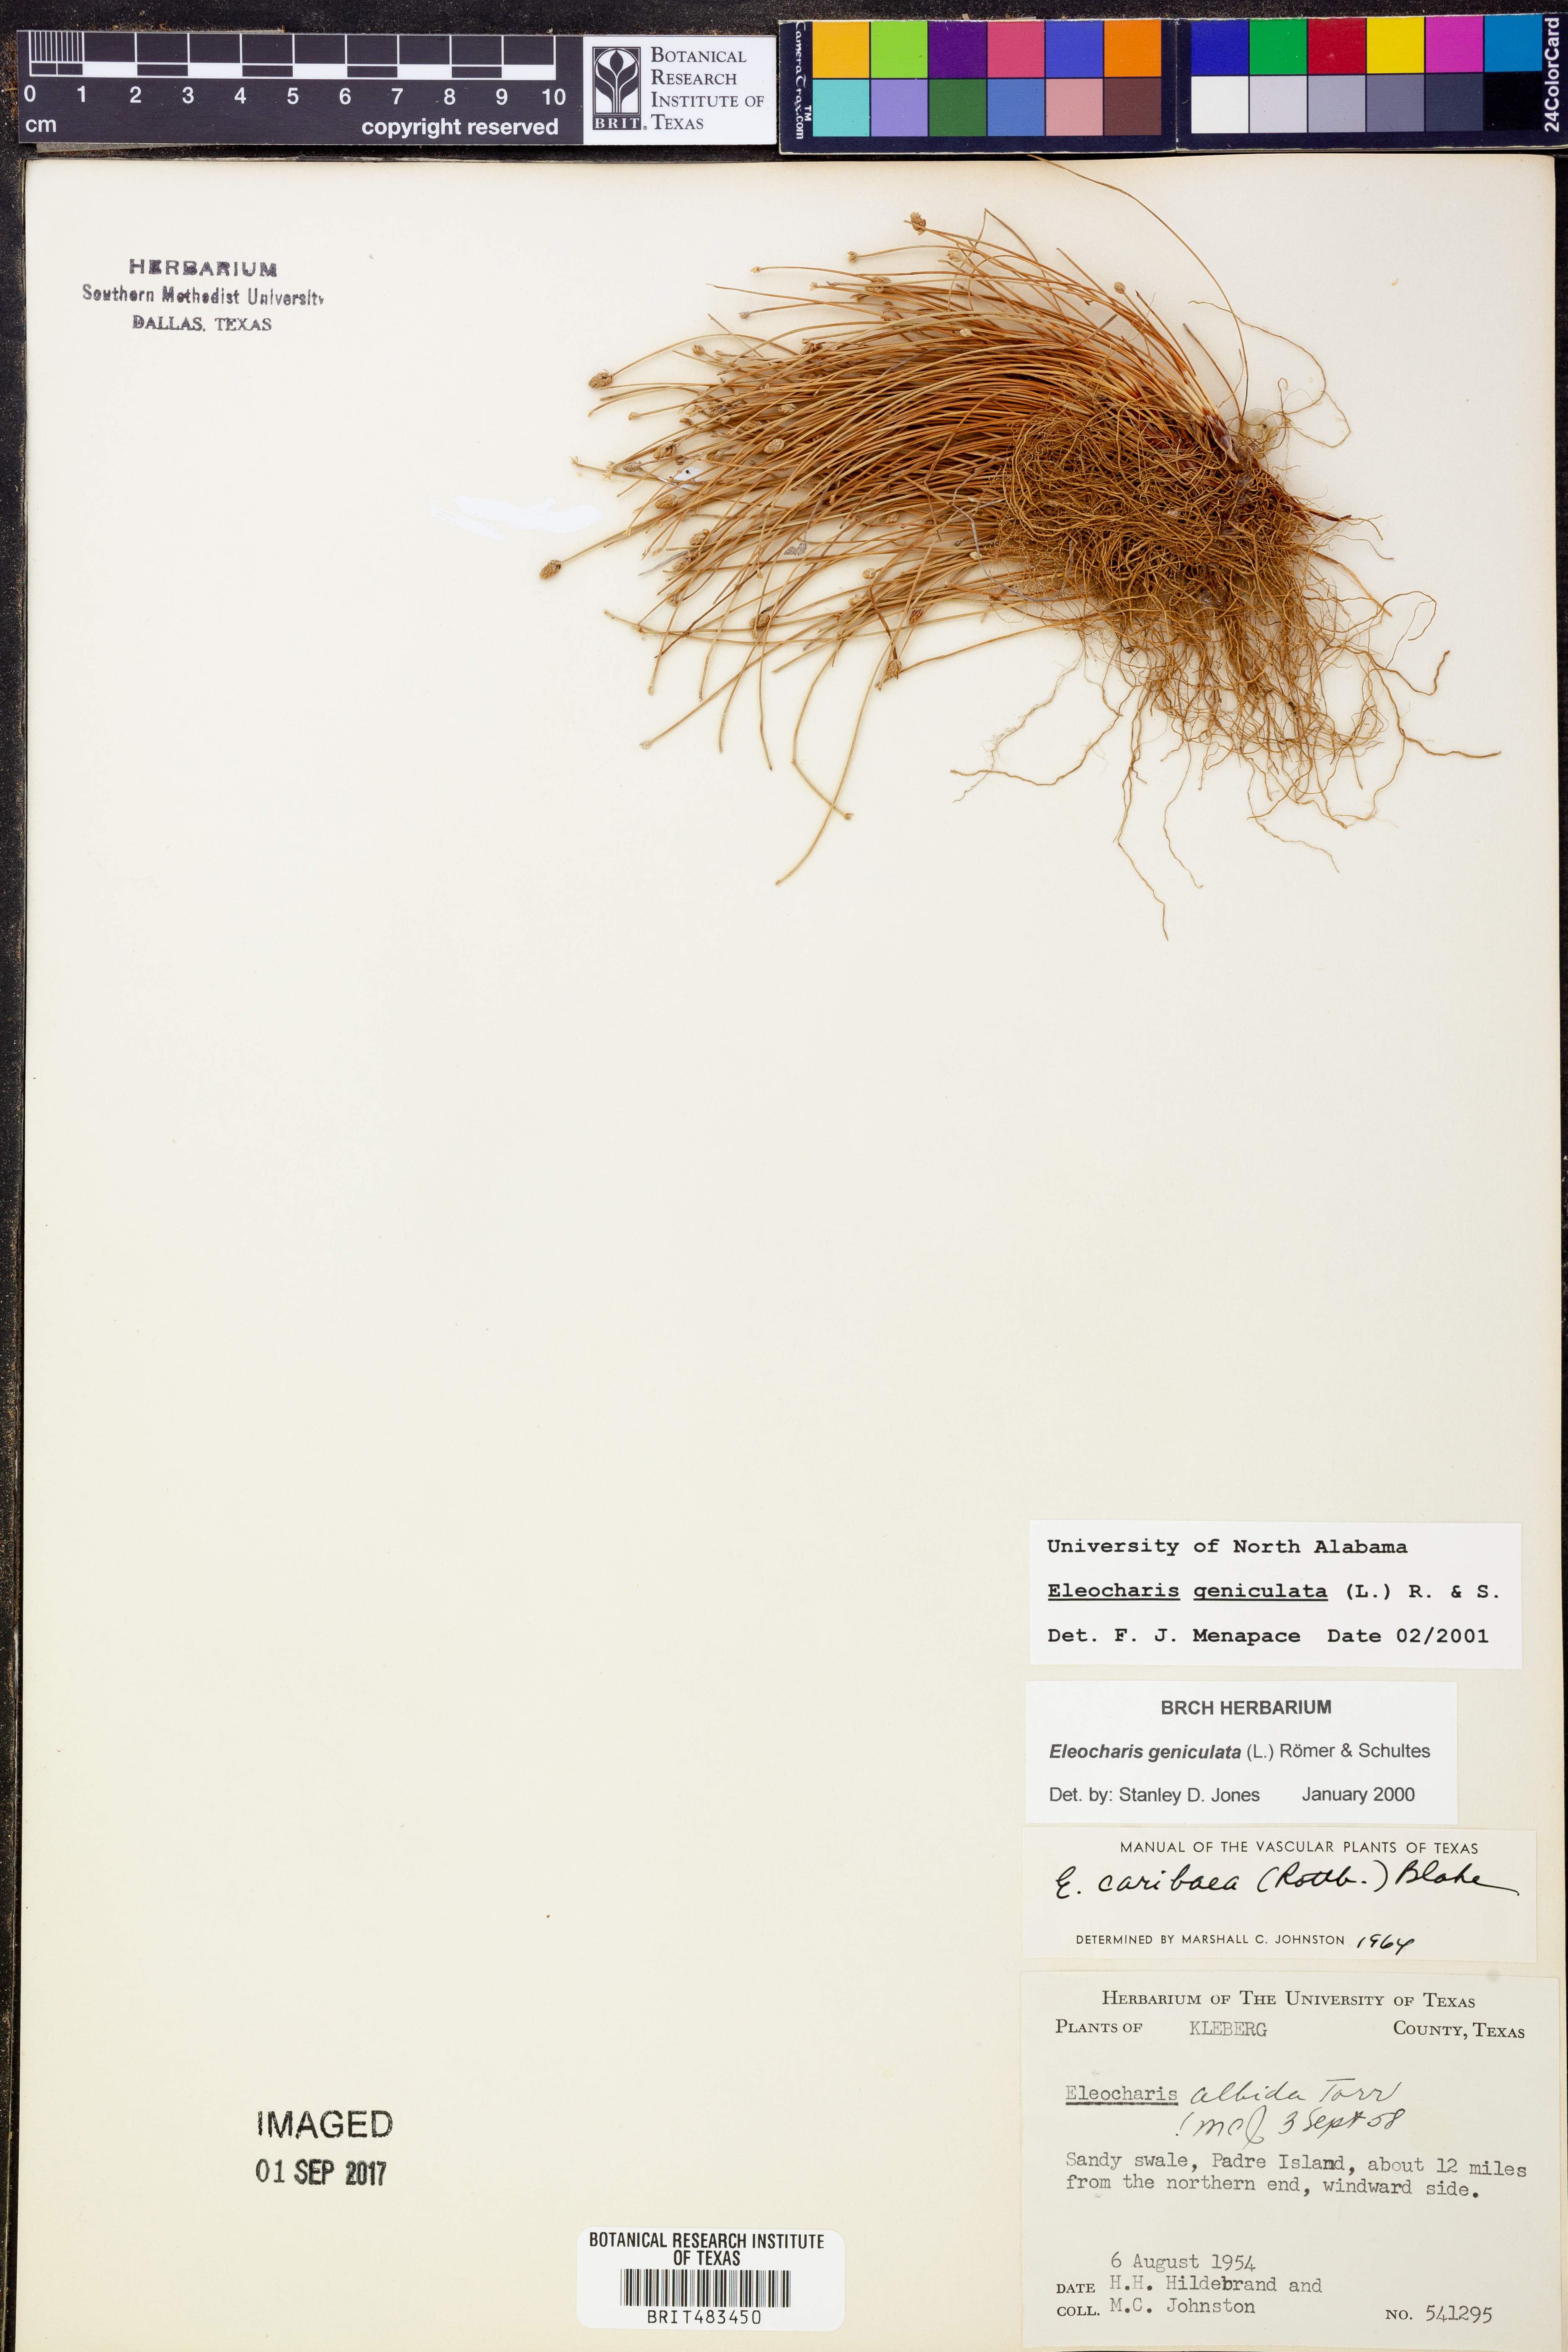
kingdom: Plantae
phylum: Tracheophyta
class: Liliopsida
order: Poales
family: Cyperaceae
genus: Eleocharis
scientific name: Eleocharis geniculata
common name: Canada spikesedge
